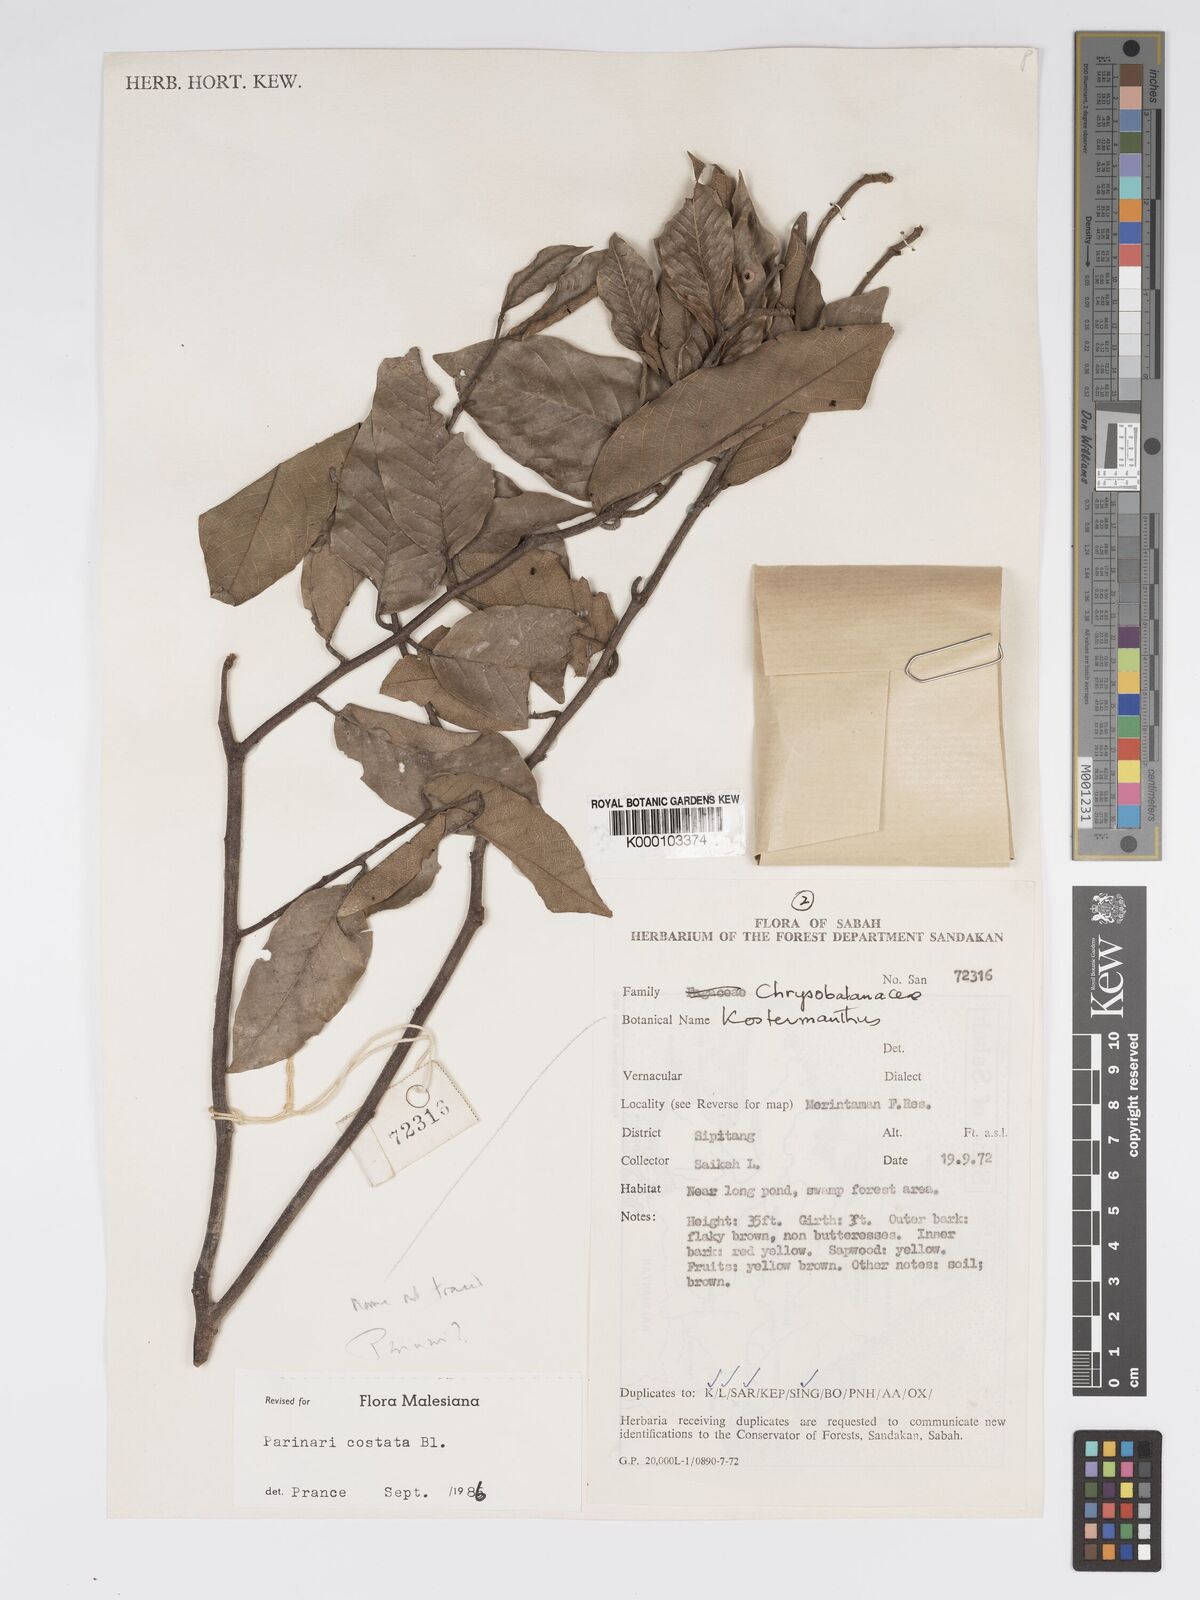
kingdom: Plantae
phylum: Tracheophyta
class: Magnoliopsida
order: Malpighiales
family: Chrysobalanaceae
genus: Parinari
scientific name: Parinari costata
